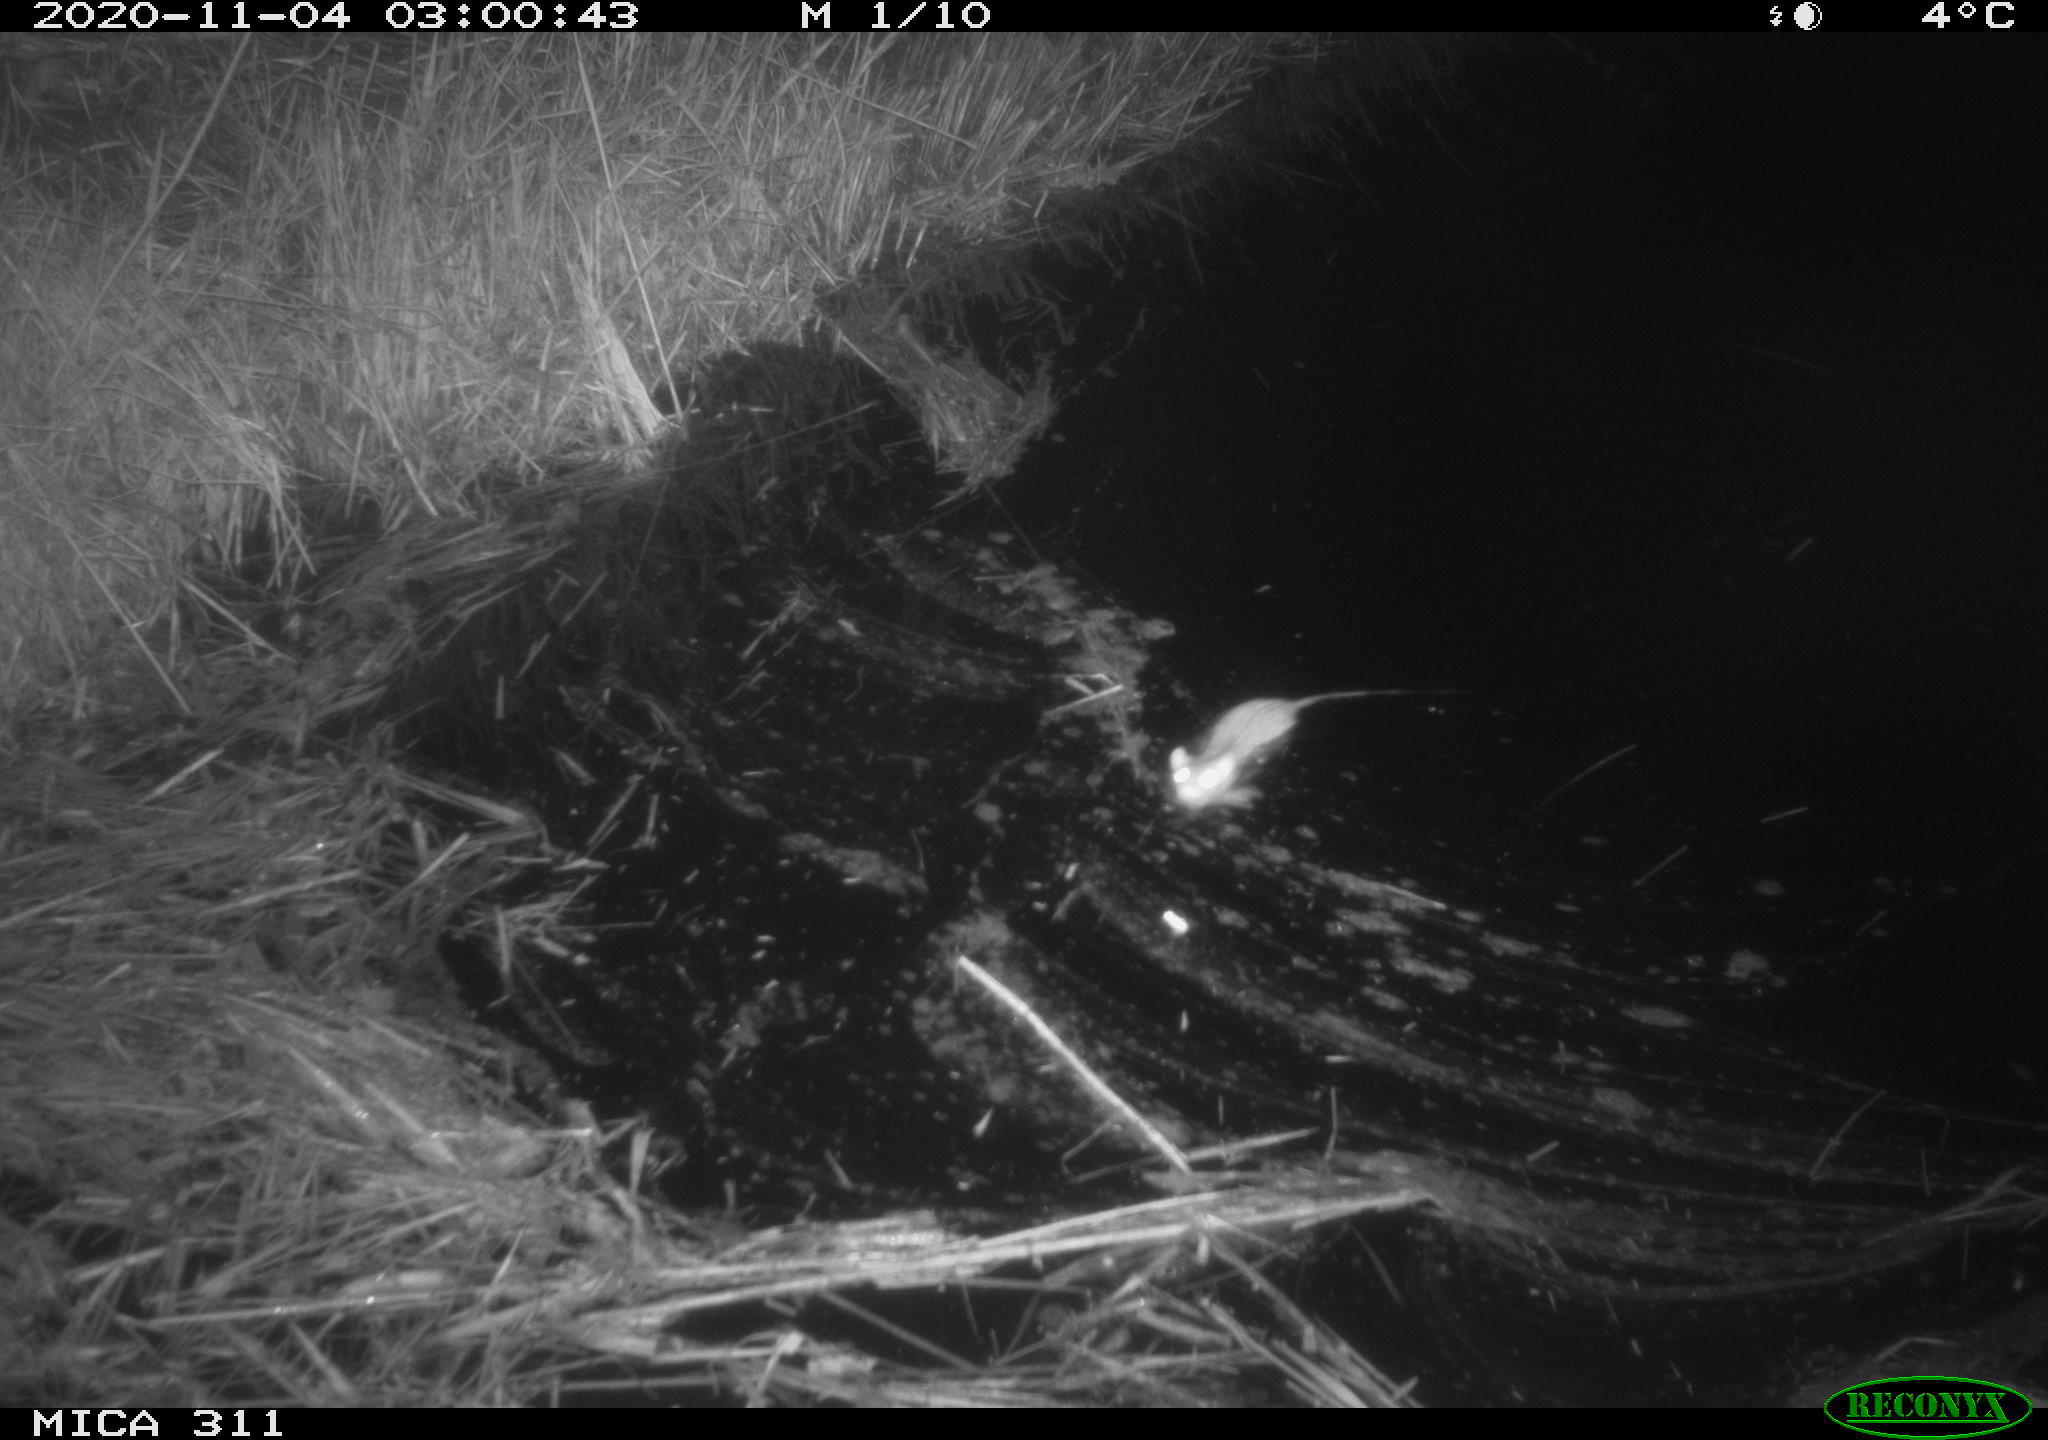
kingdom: Animalia
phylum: Chordata
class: Mammalia
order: Rodentia
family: Muridae
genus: Rattus
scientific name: Rattus norvegicus
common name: Brown rat
